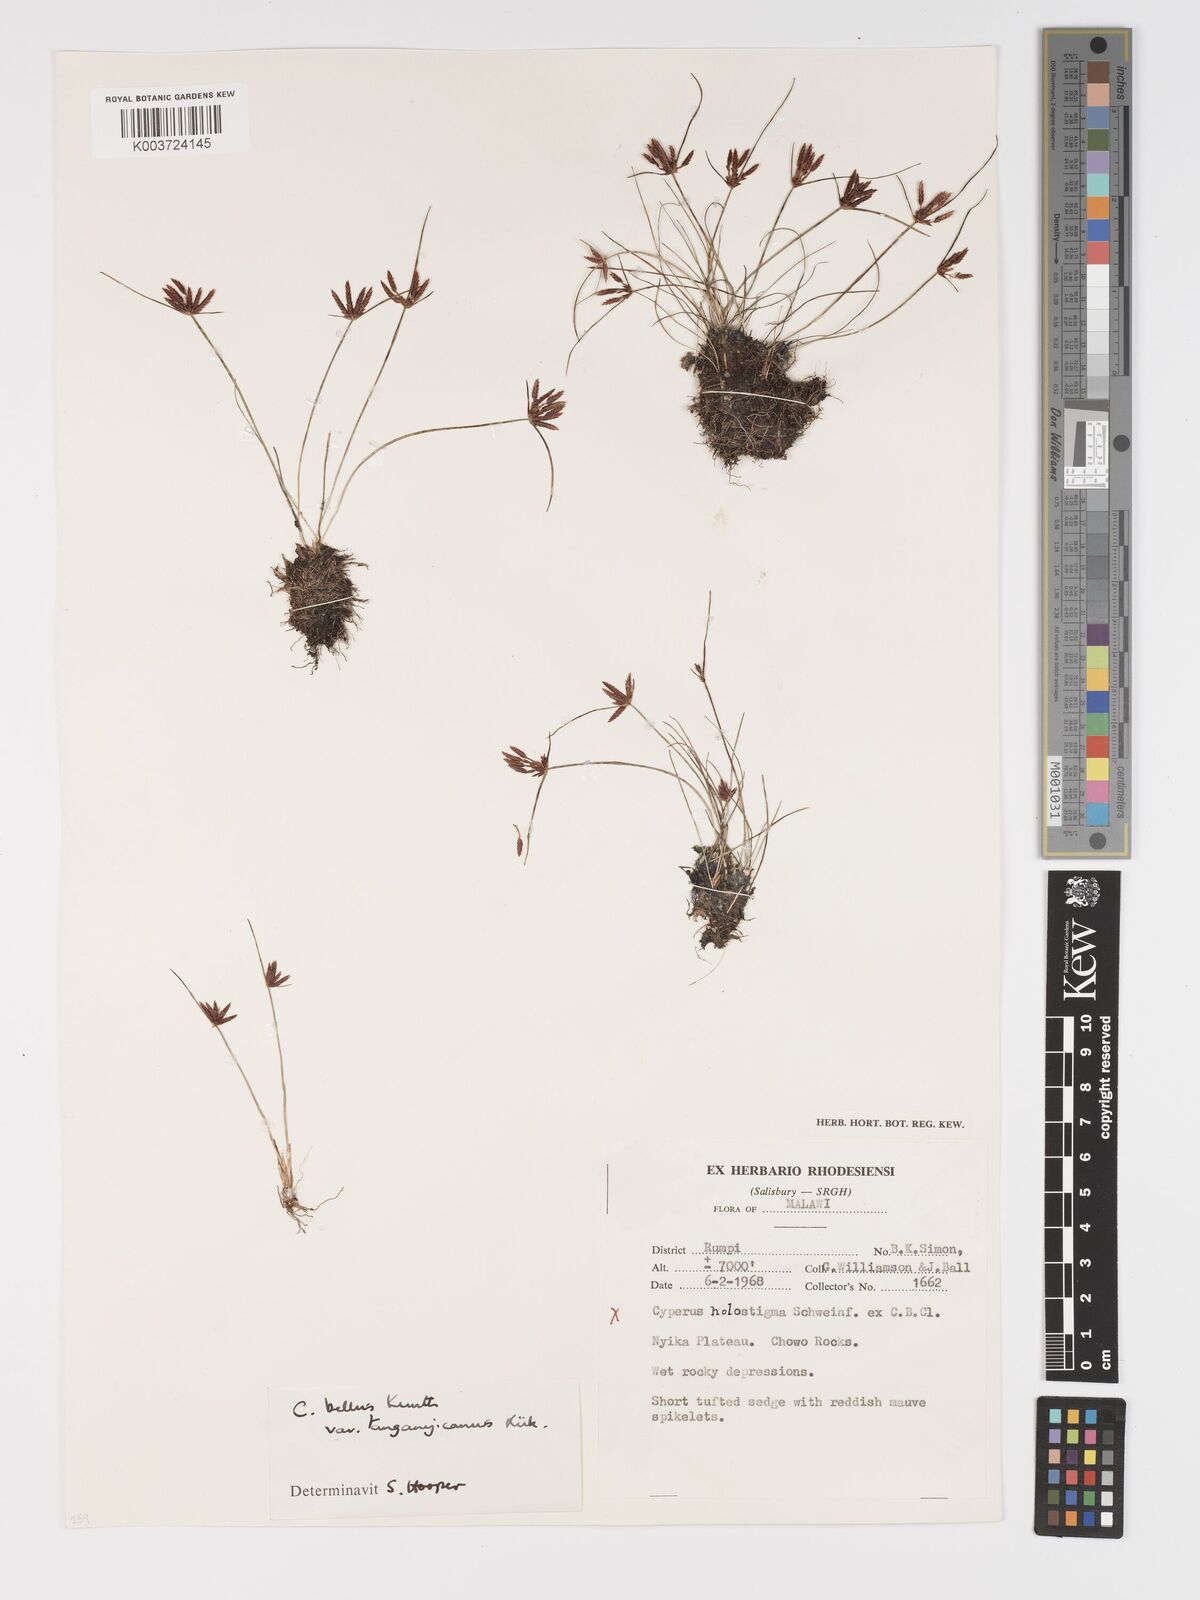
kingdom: Plantae
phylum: Tracheophyta
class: Liliopsida
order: Poales
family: Cyperaceae
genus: Cyperus
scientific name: Cyperus semitrifidus
